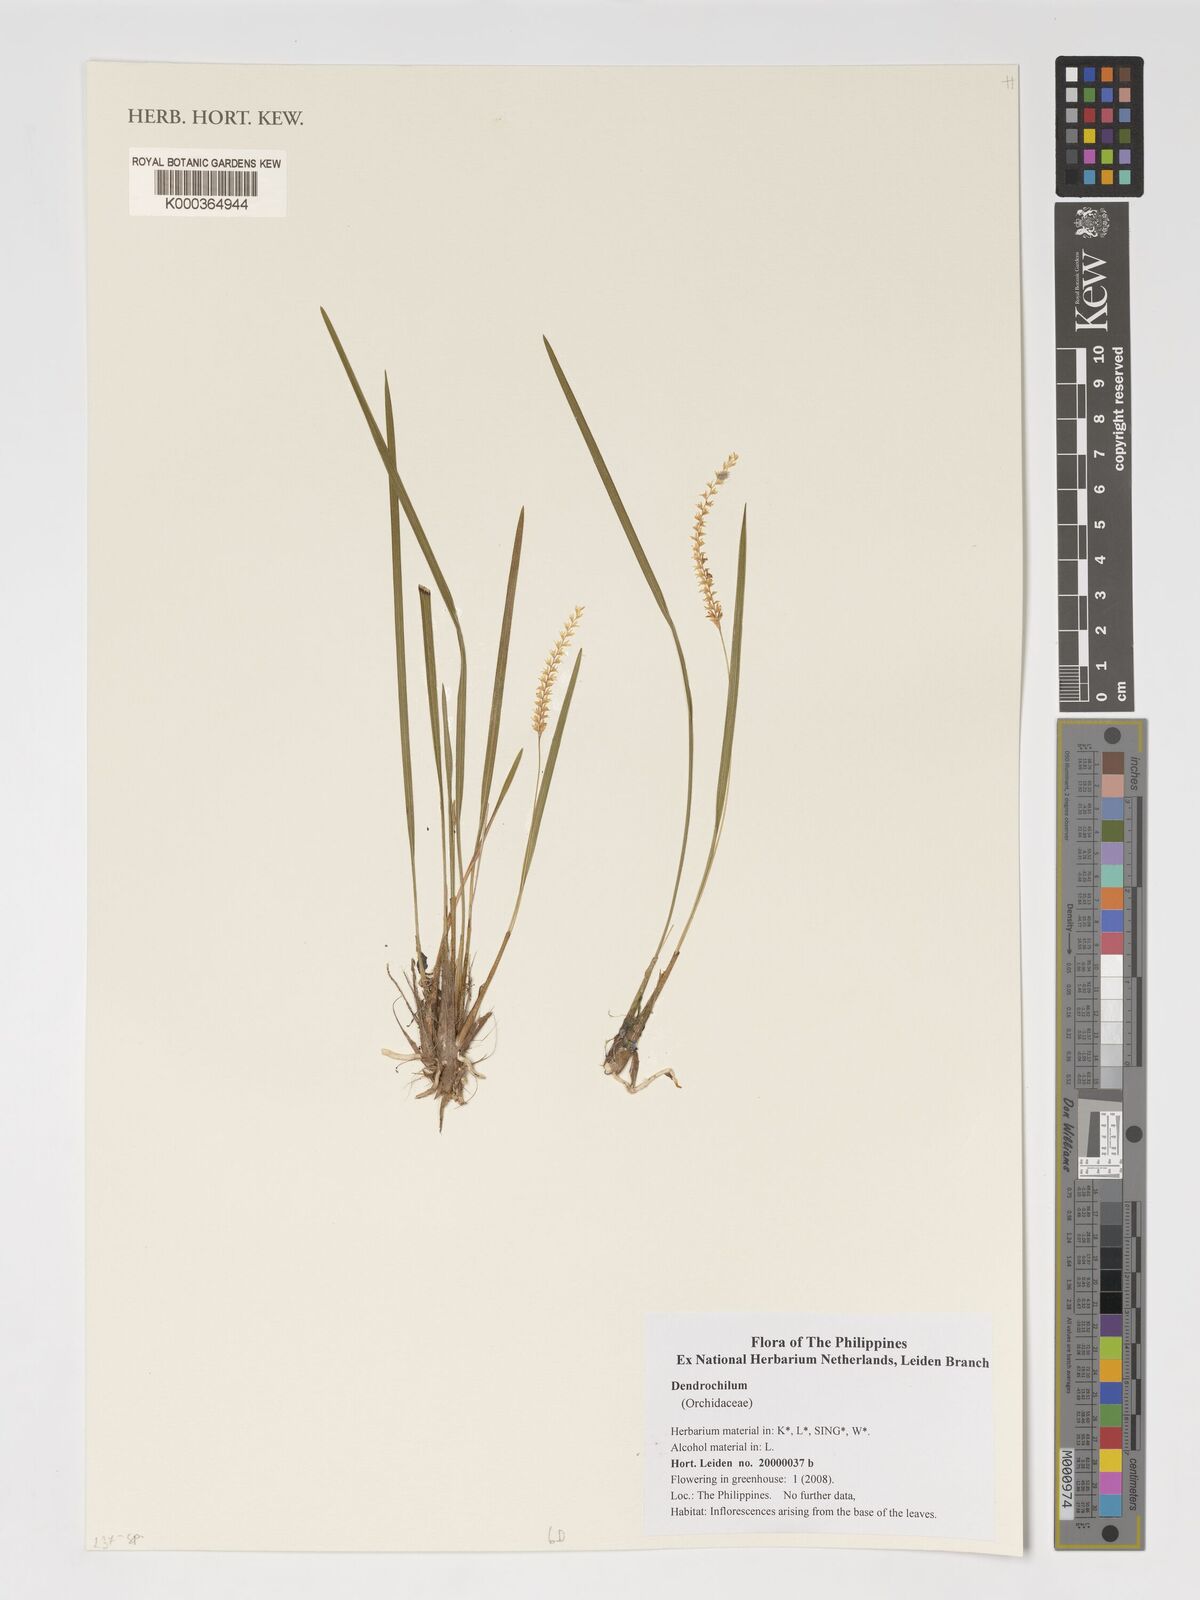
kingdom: Plantae
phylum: Tracheophyta
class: Liliopsida
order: Asparagales
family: Orchidaceae
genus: Coelogyne
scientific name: Coelogyne
